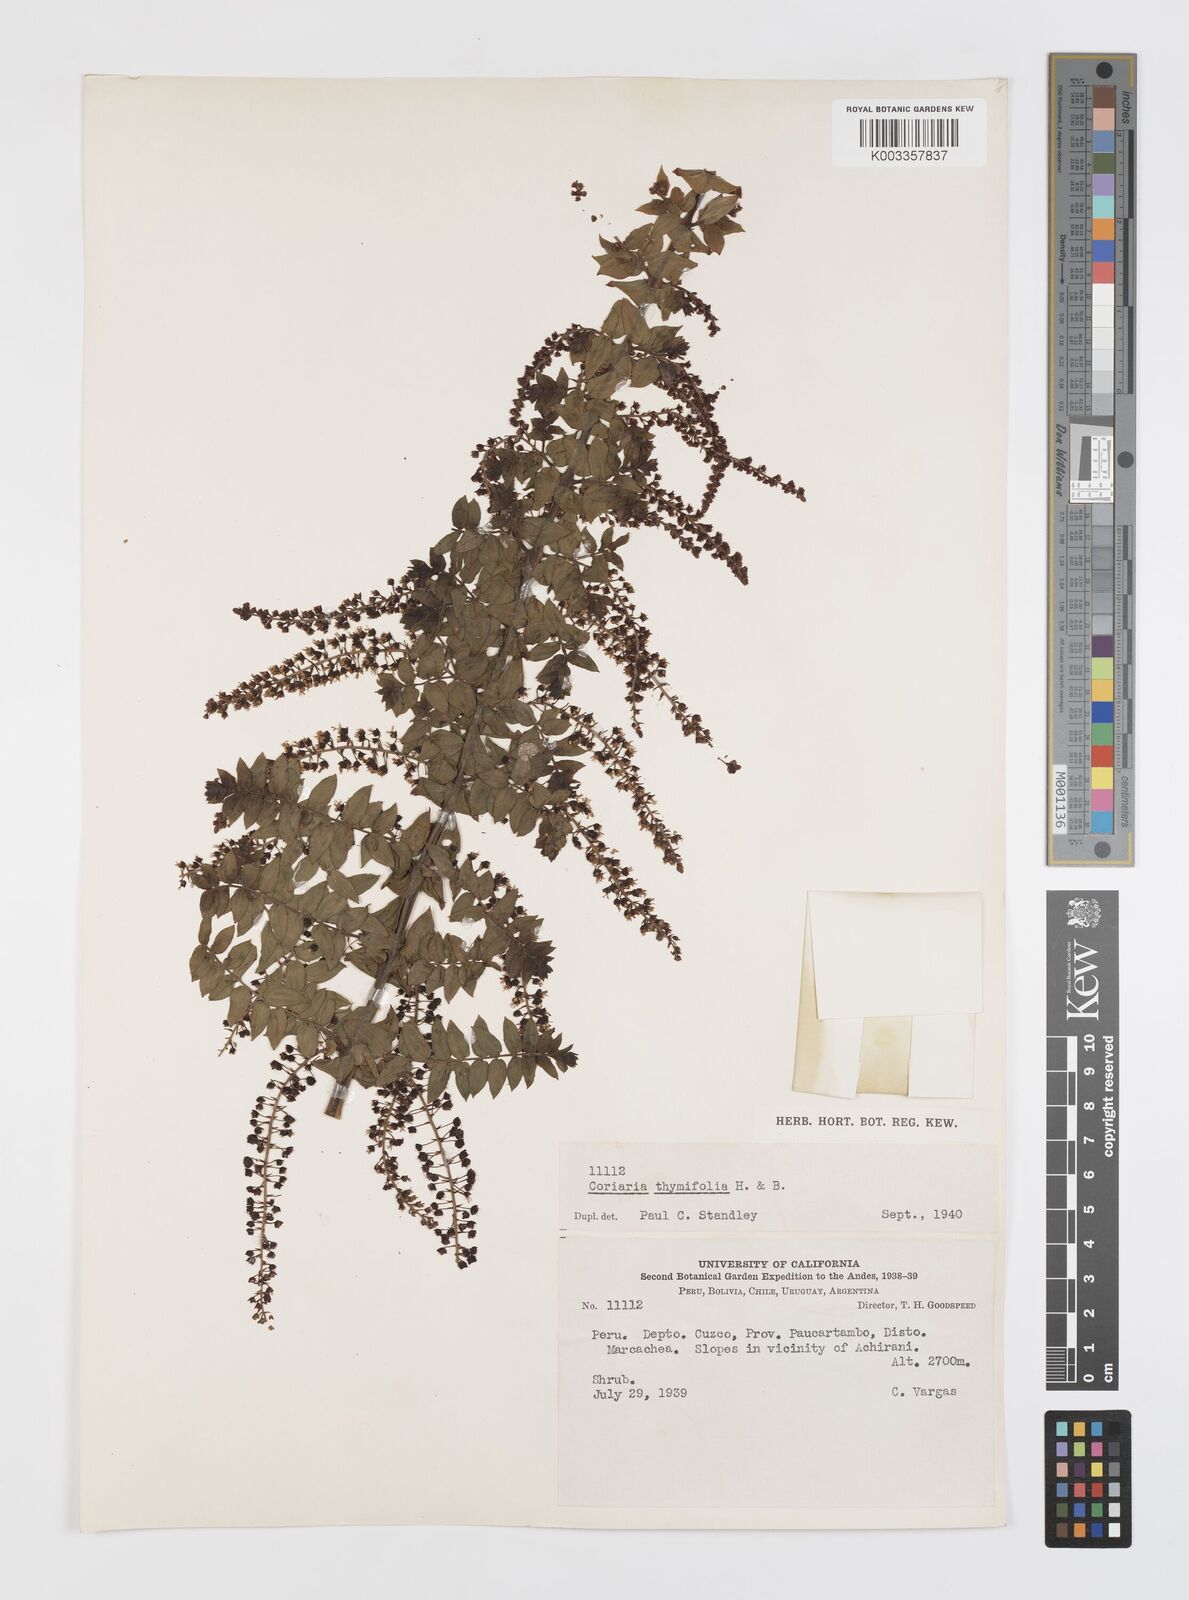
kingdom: Plantae
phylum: Tracheophyta
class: Magnoliopsida
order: Cucurbitales
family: Coriariaceae
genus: Coriaria
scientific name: Coriaria microphylla
